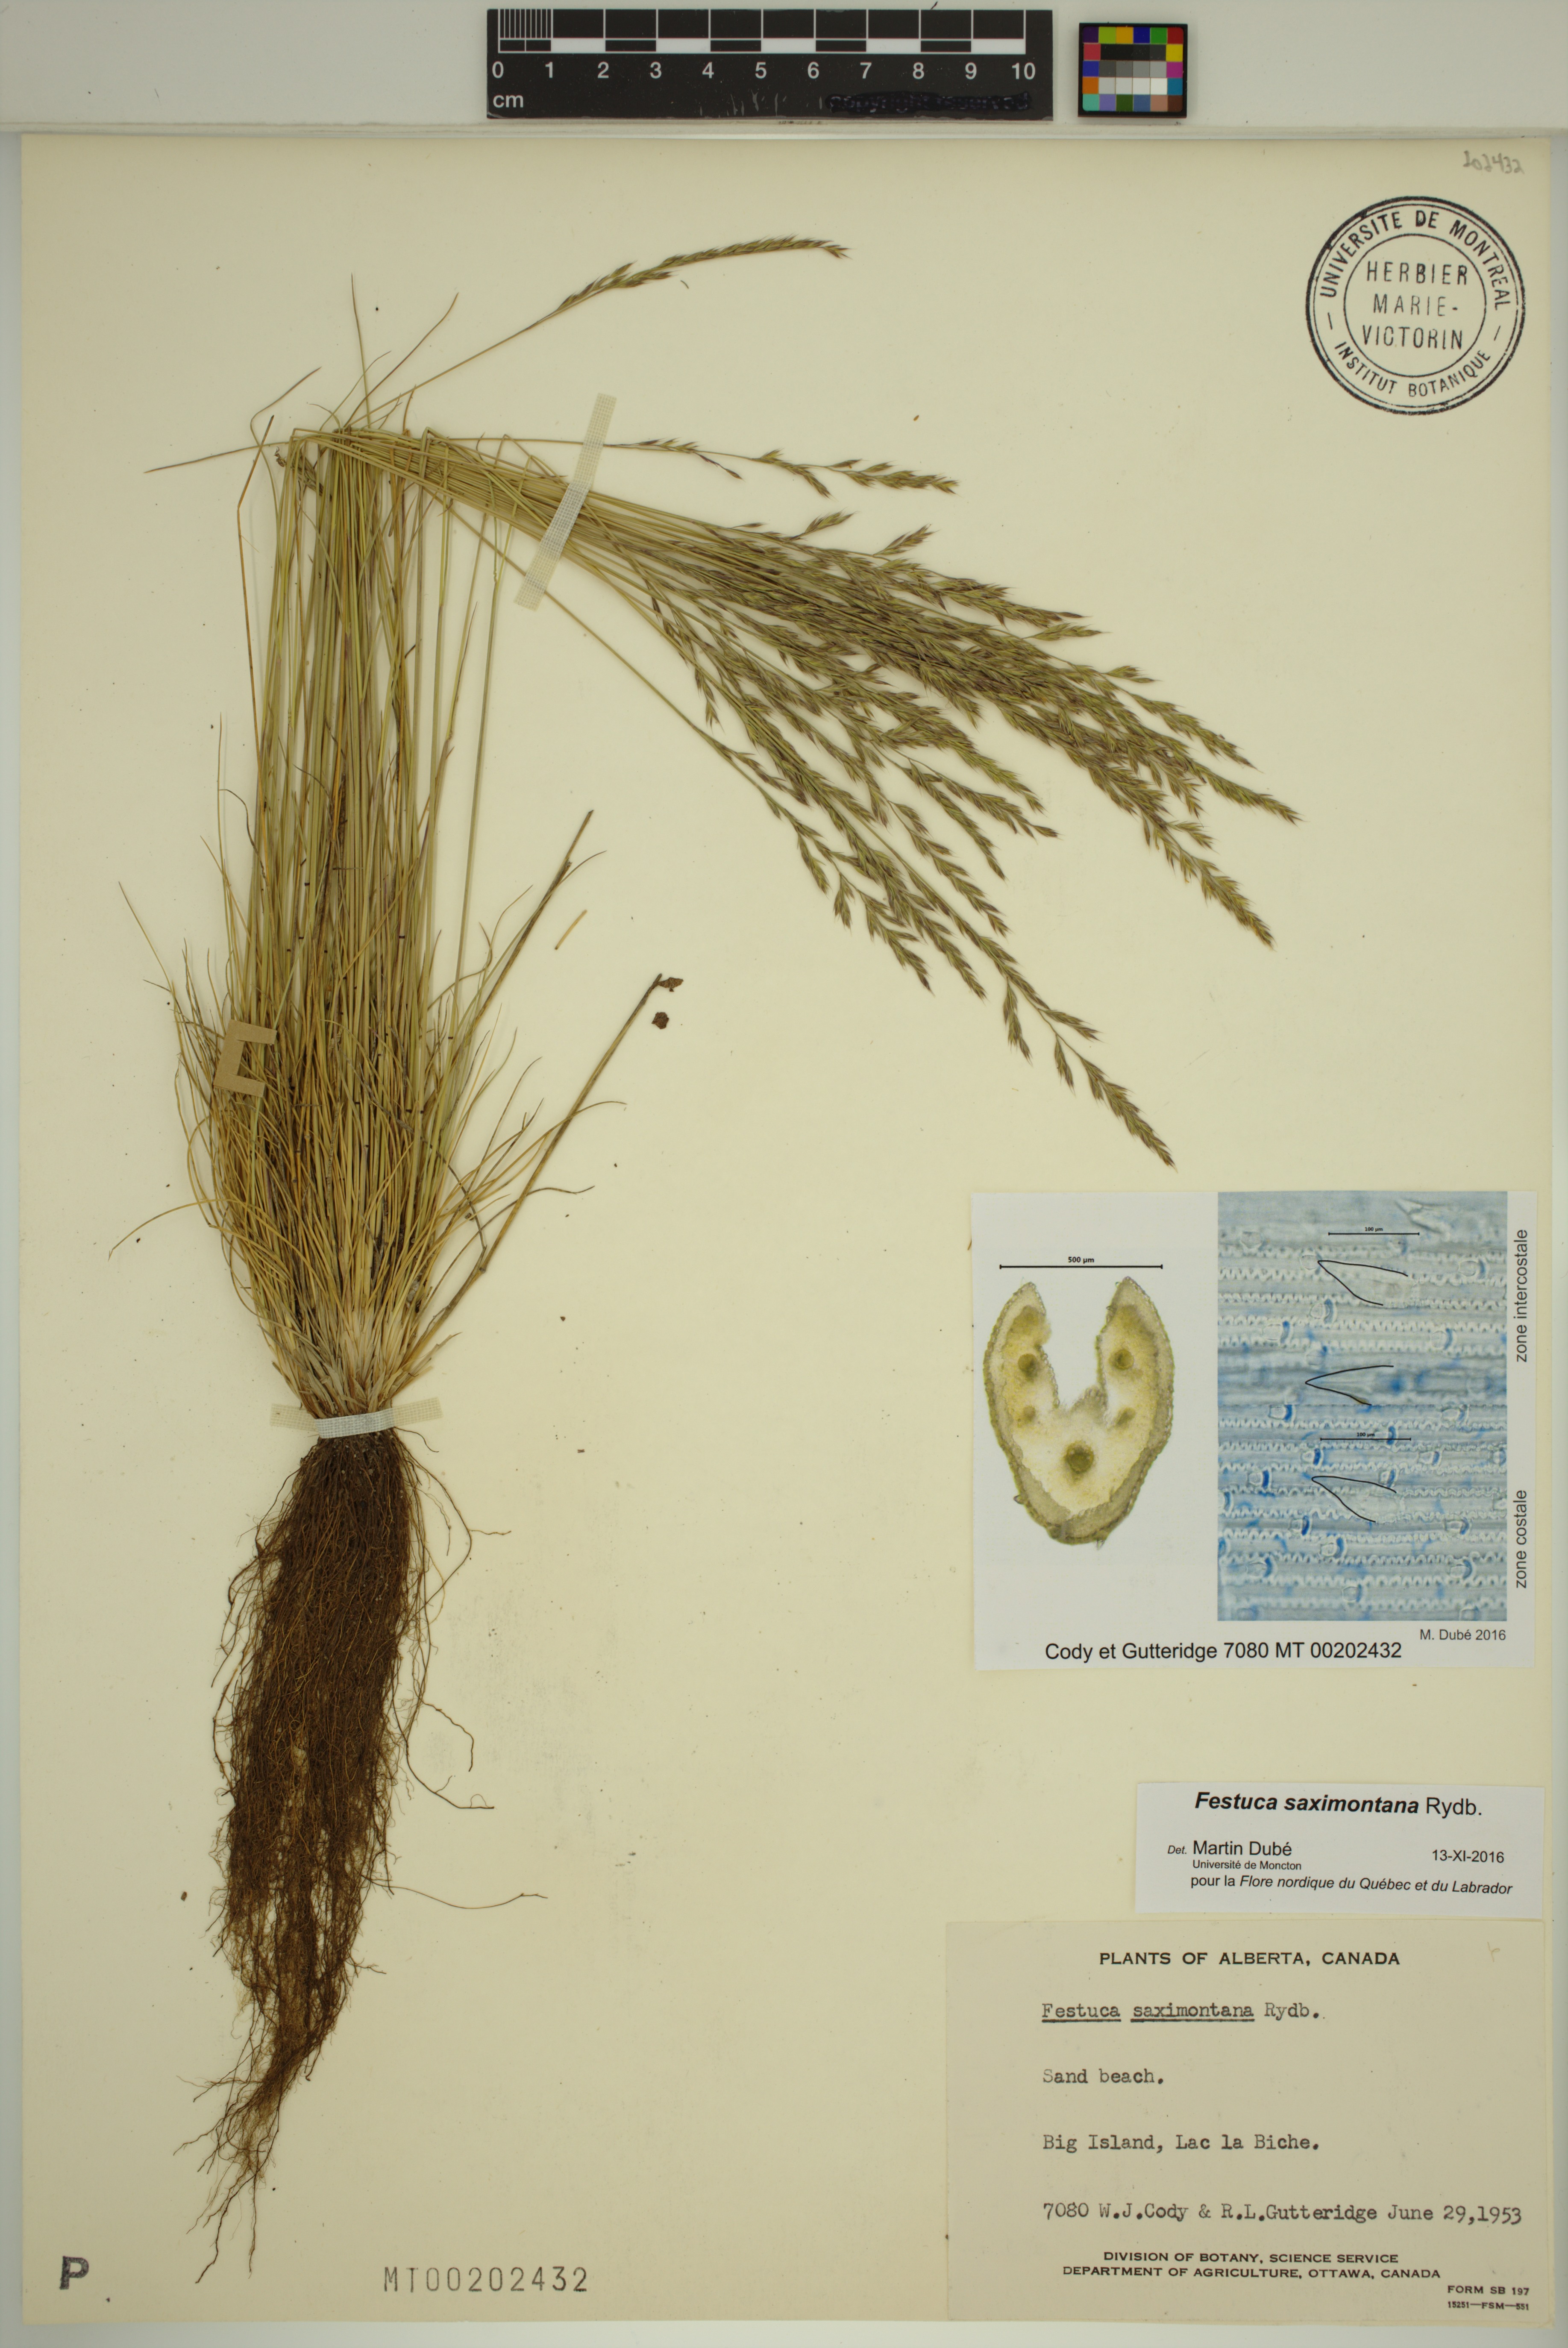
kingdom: Plantae
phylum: Tracheophyta
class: Liliopsida
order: Poales
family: Poaceae
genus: Festuca
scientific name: Festuca saximontana
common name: Mountain fescue
